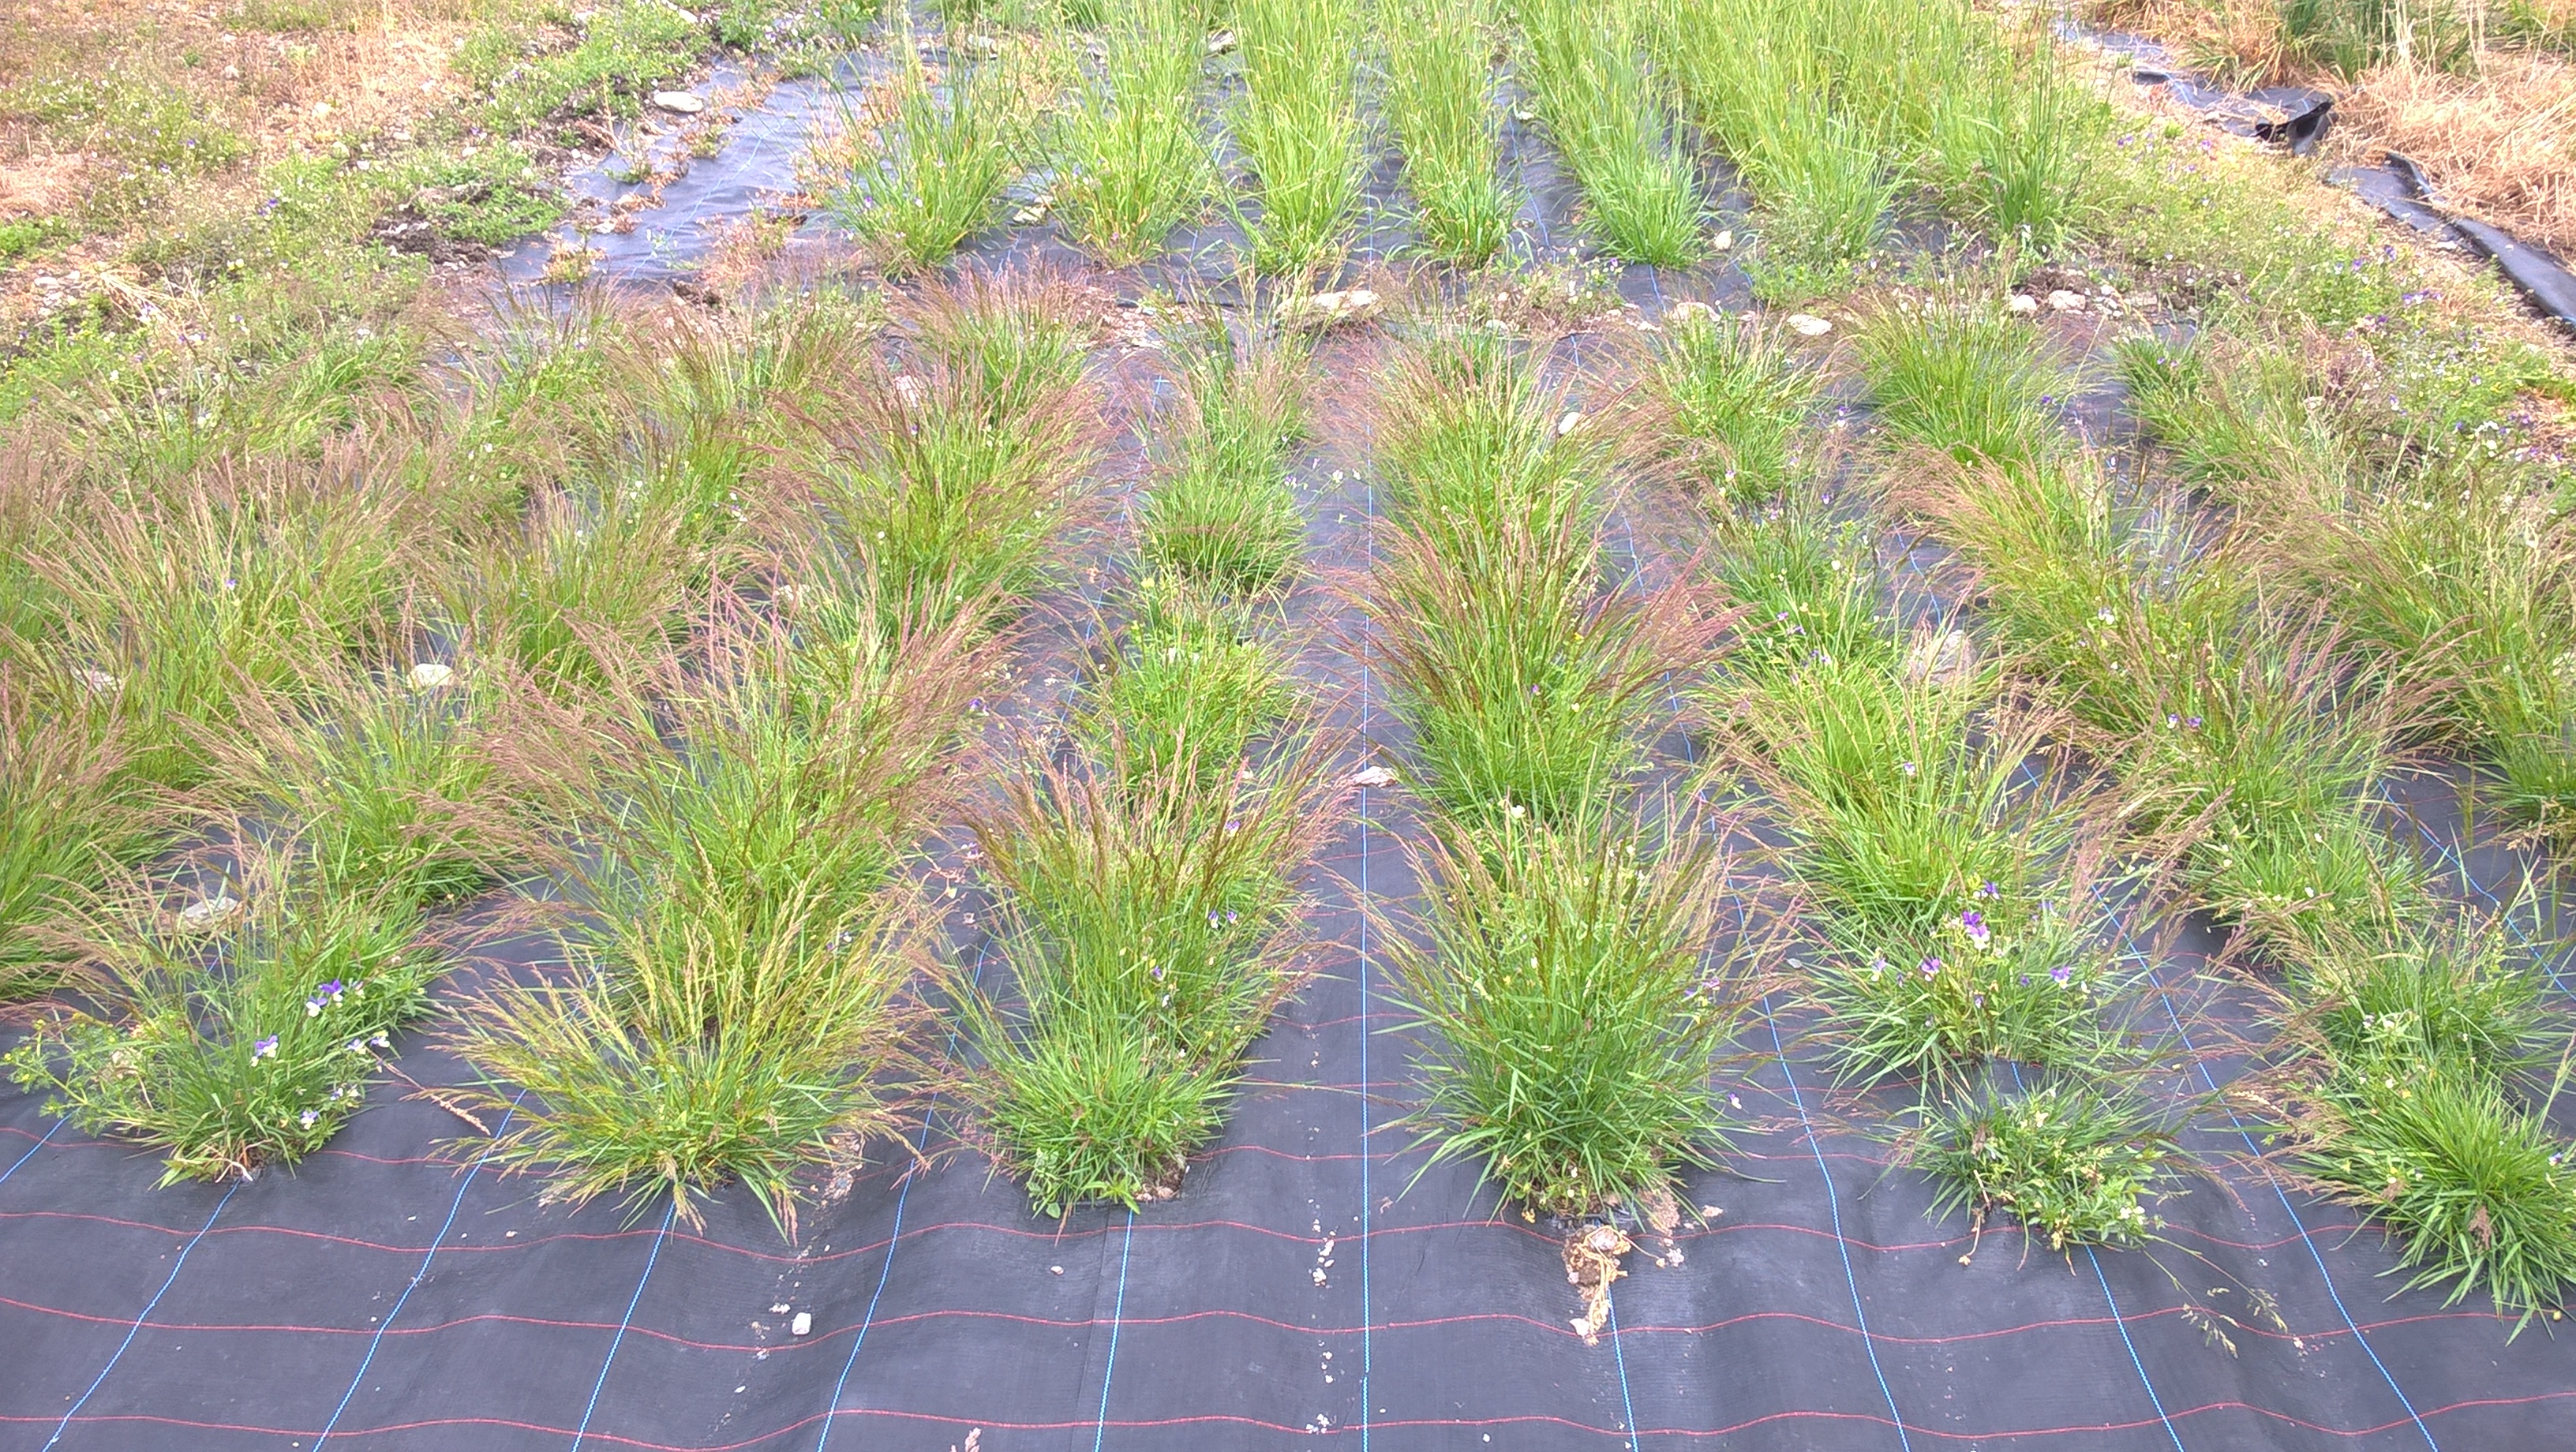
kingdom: Plantae
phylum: Tracheophyta
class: Liliopsida
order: Poales
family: Poaceae
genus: Agrostis
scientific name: Agrostis capillaris
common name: Colonial bentgrass
